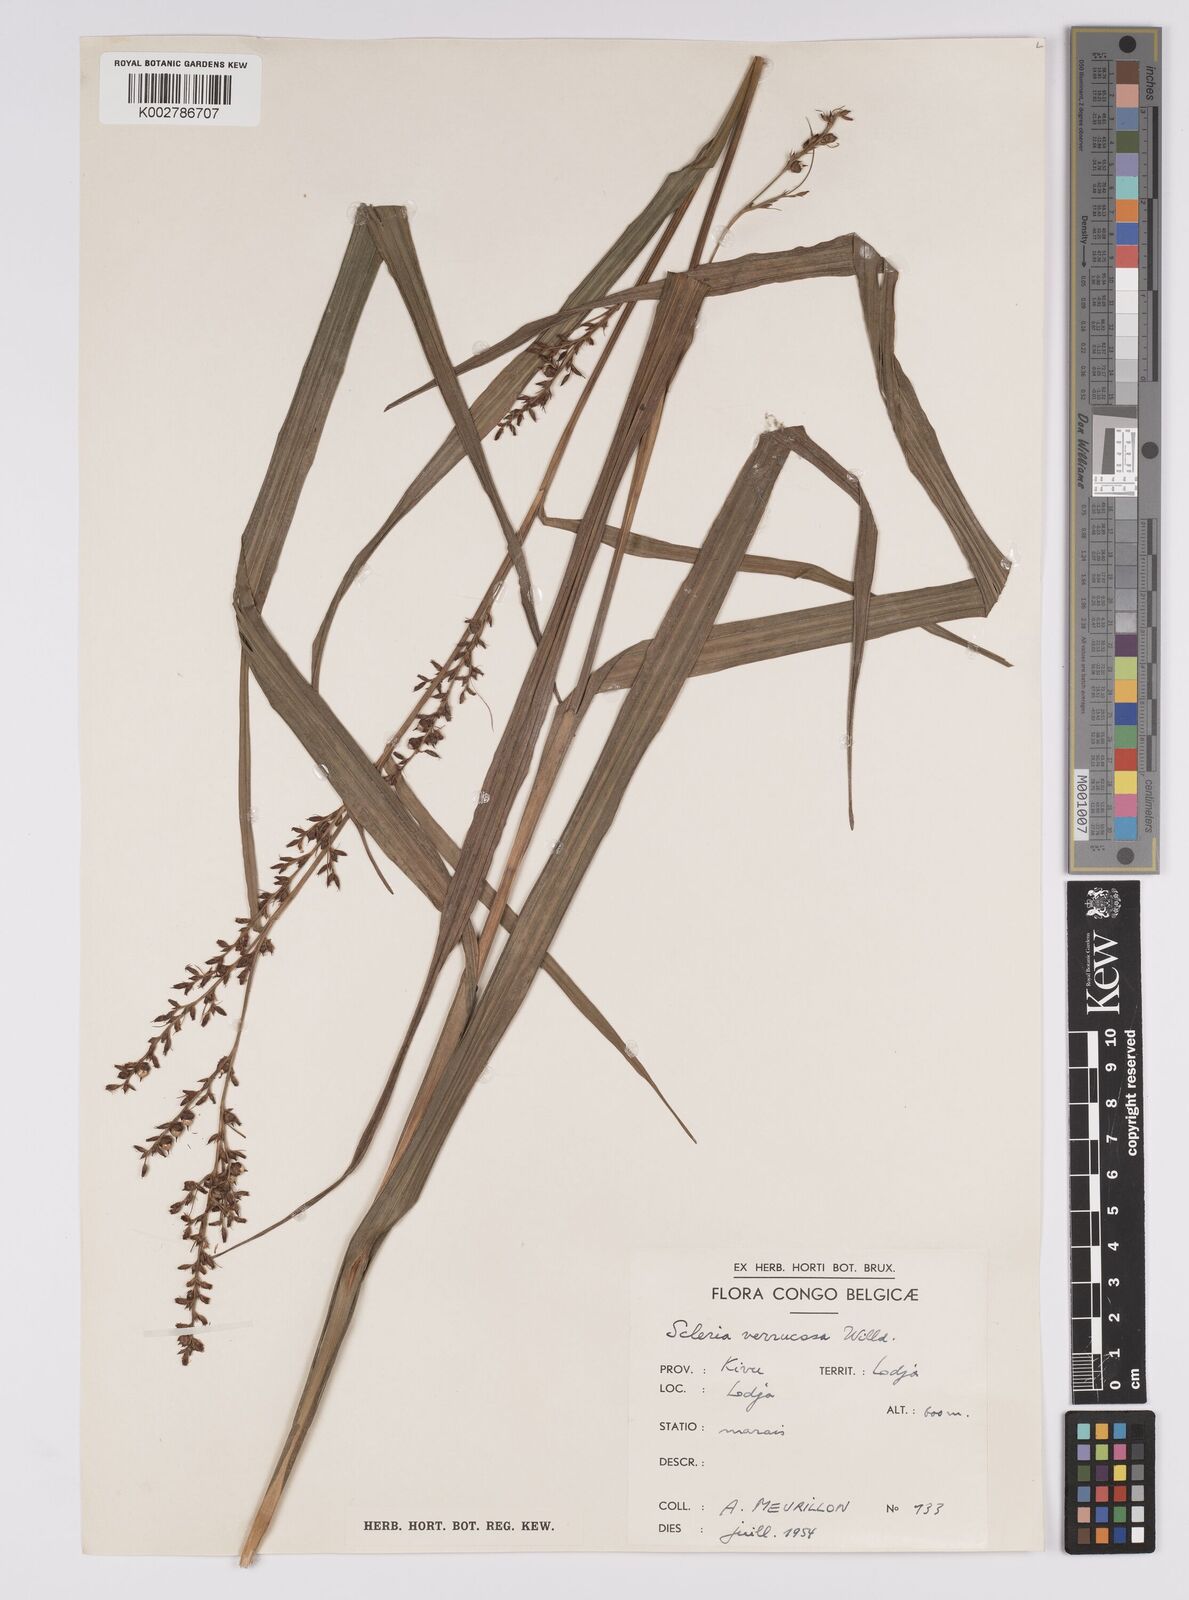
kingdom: Plantae
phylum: Tracheophyta
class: Liliopsida
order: Poales
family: Cyperaceae
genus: Scleria
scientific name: Scleria verrucosa
